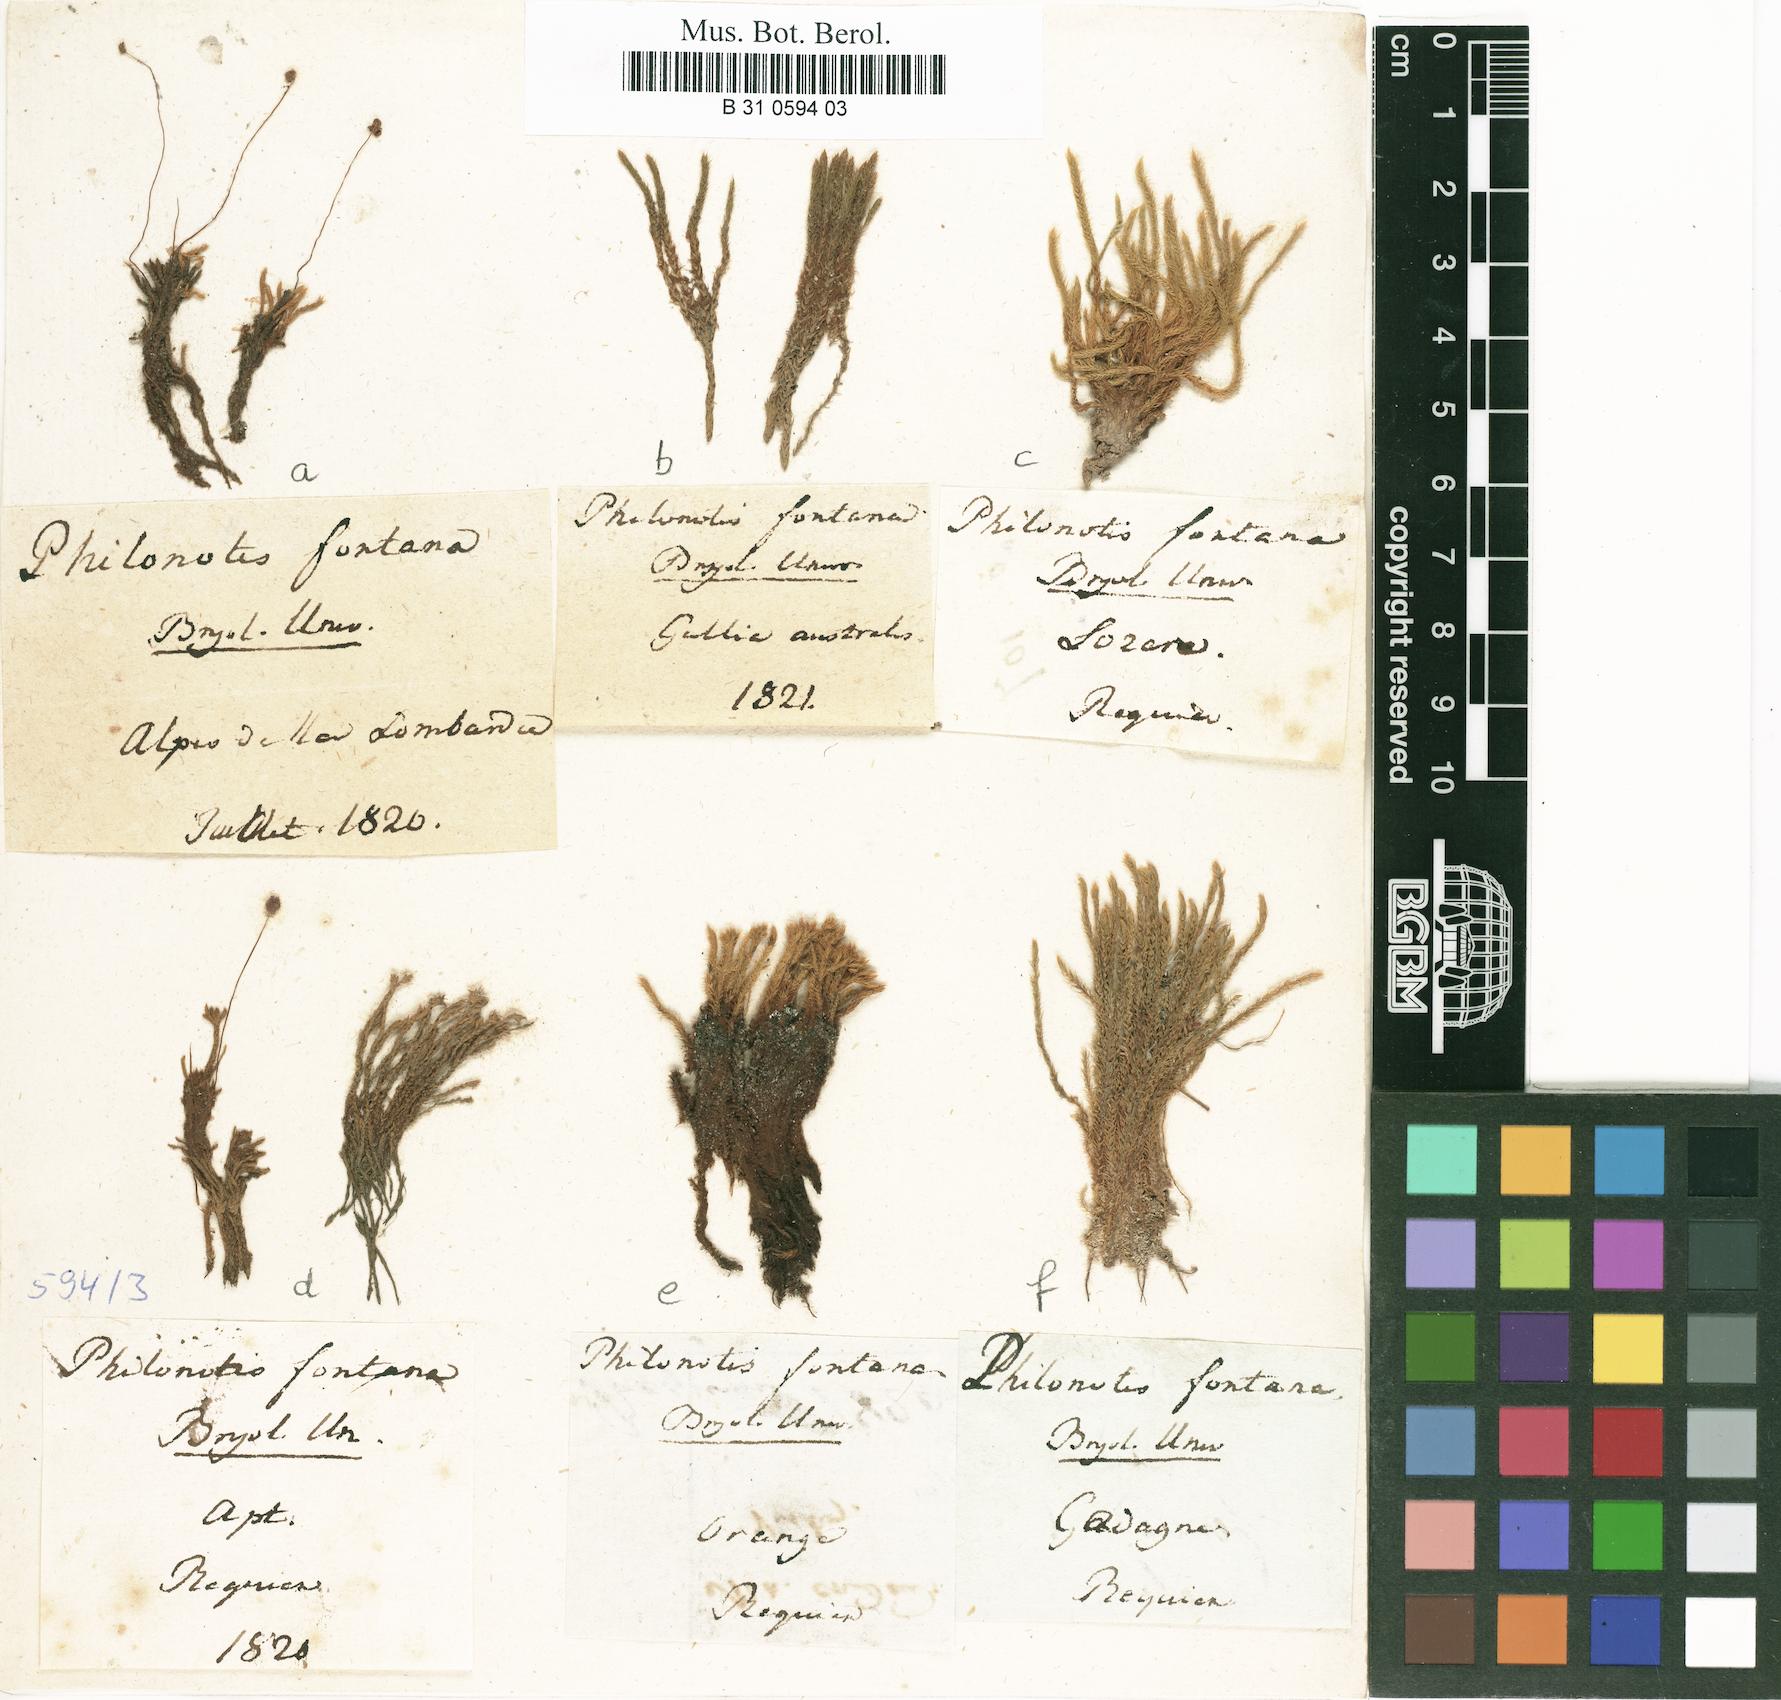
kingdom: Plantae
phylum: Bryophyta
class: Bryopsida
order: Bartramiales
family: Bartramiaceae
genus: Philonotis
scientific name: Philonotis fontana
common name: Fountain apple-moss
